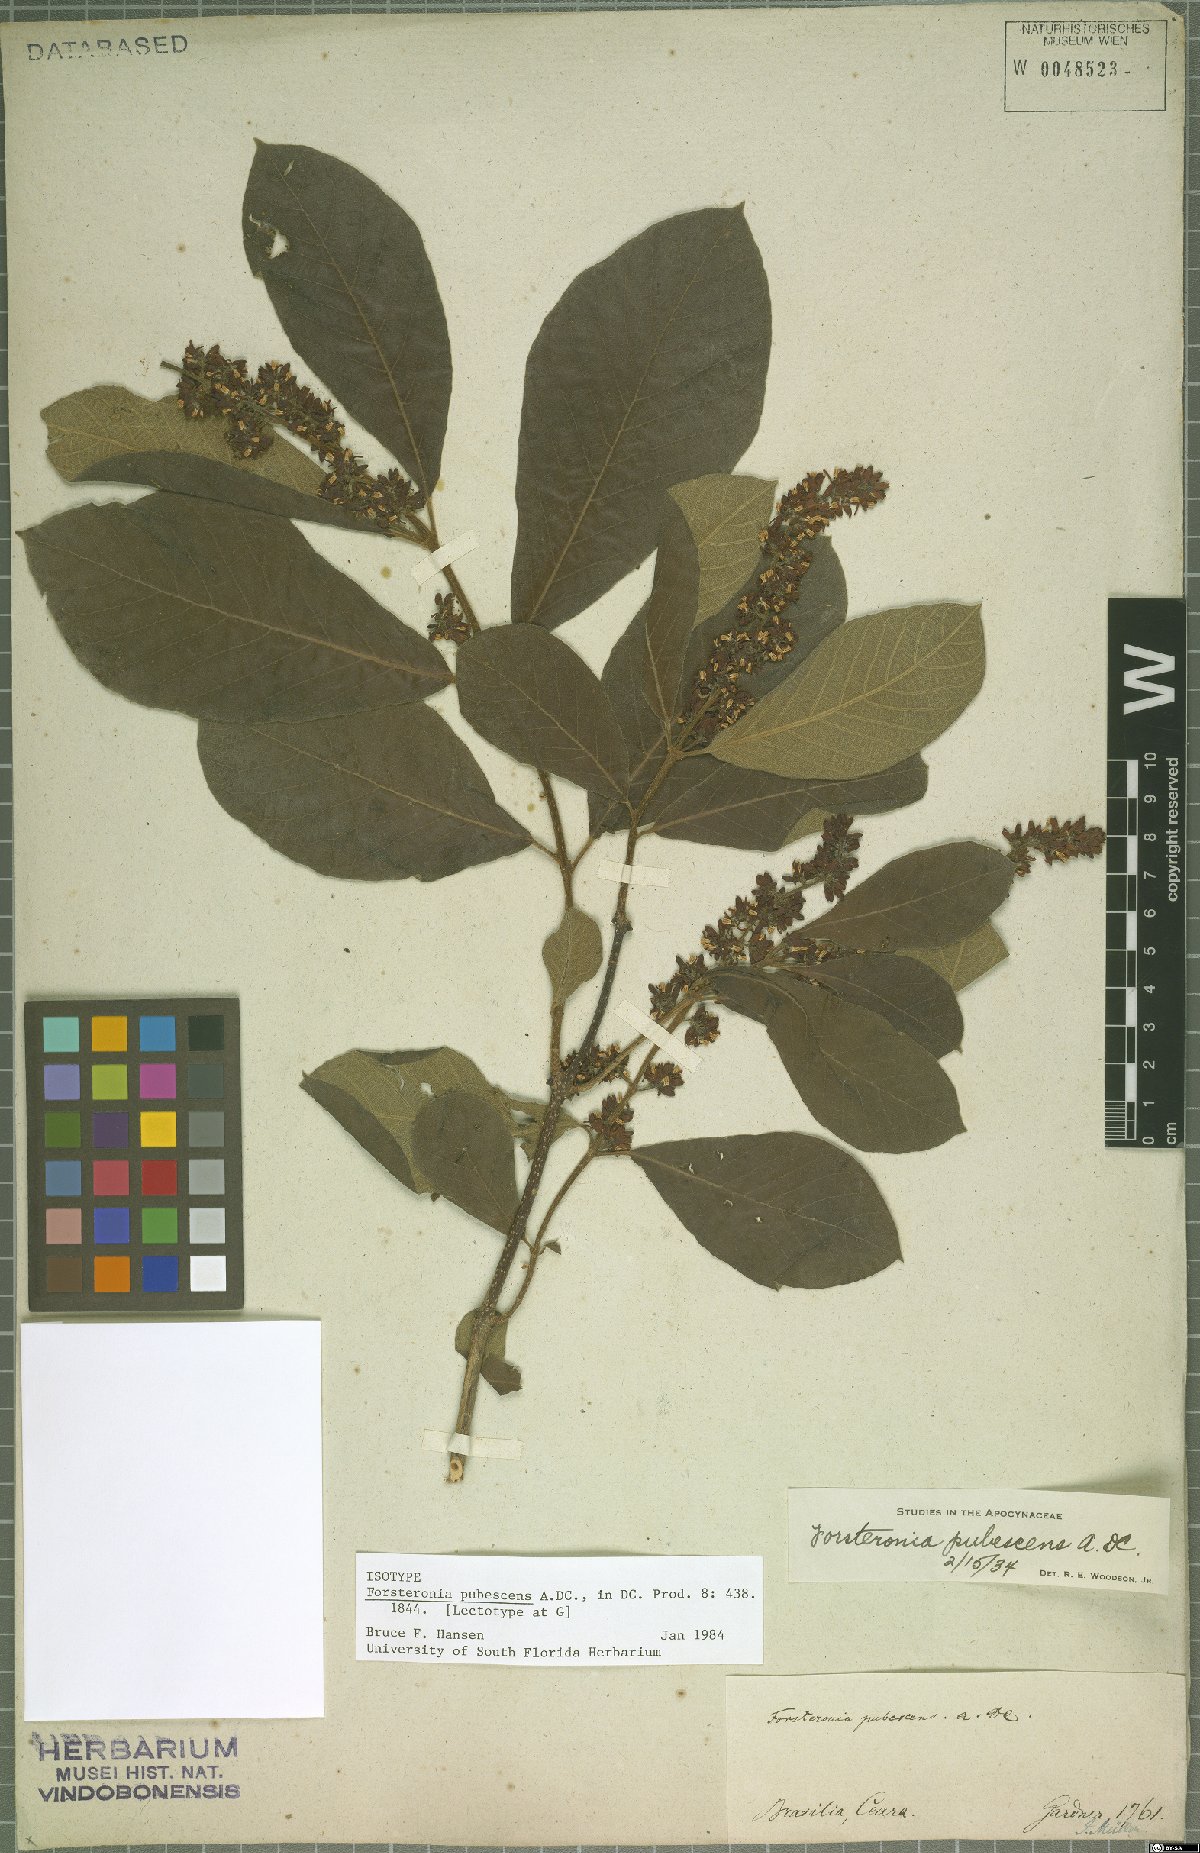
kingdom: Plantae
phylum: Tracheophyta
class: Magnoliopsida
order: Gentianales
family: Apocynaceae
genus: Forsteronia
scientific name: Forsteronia pubescens
